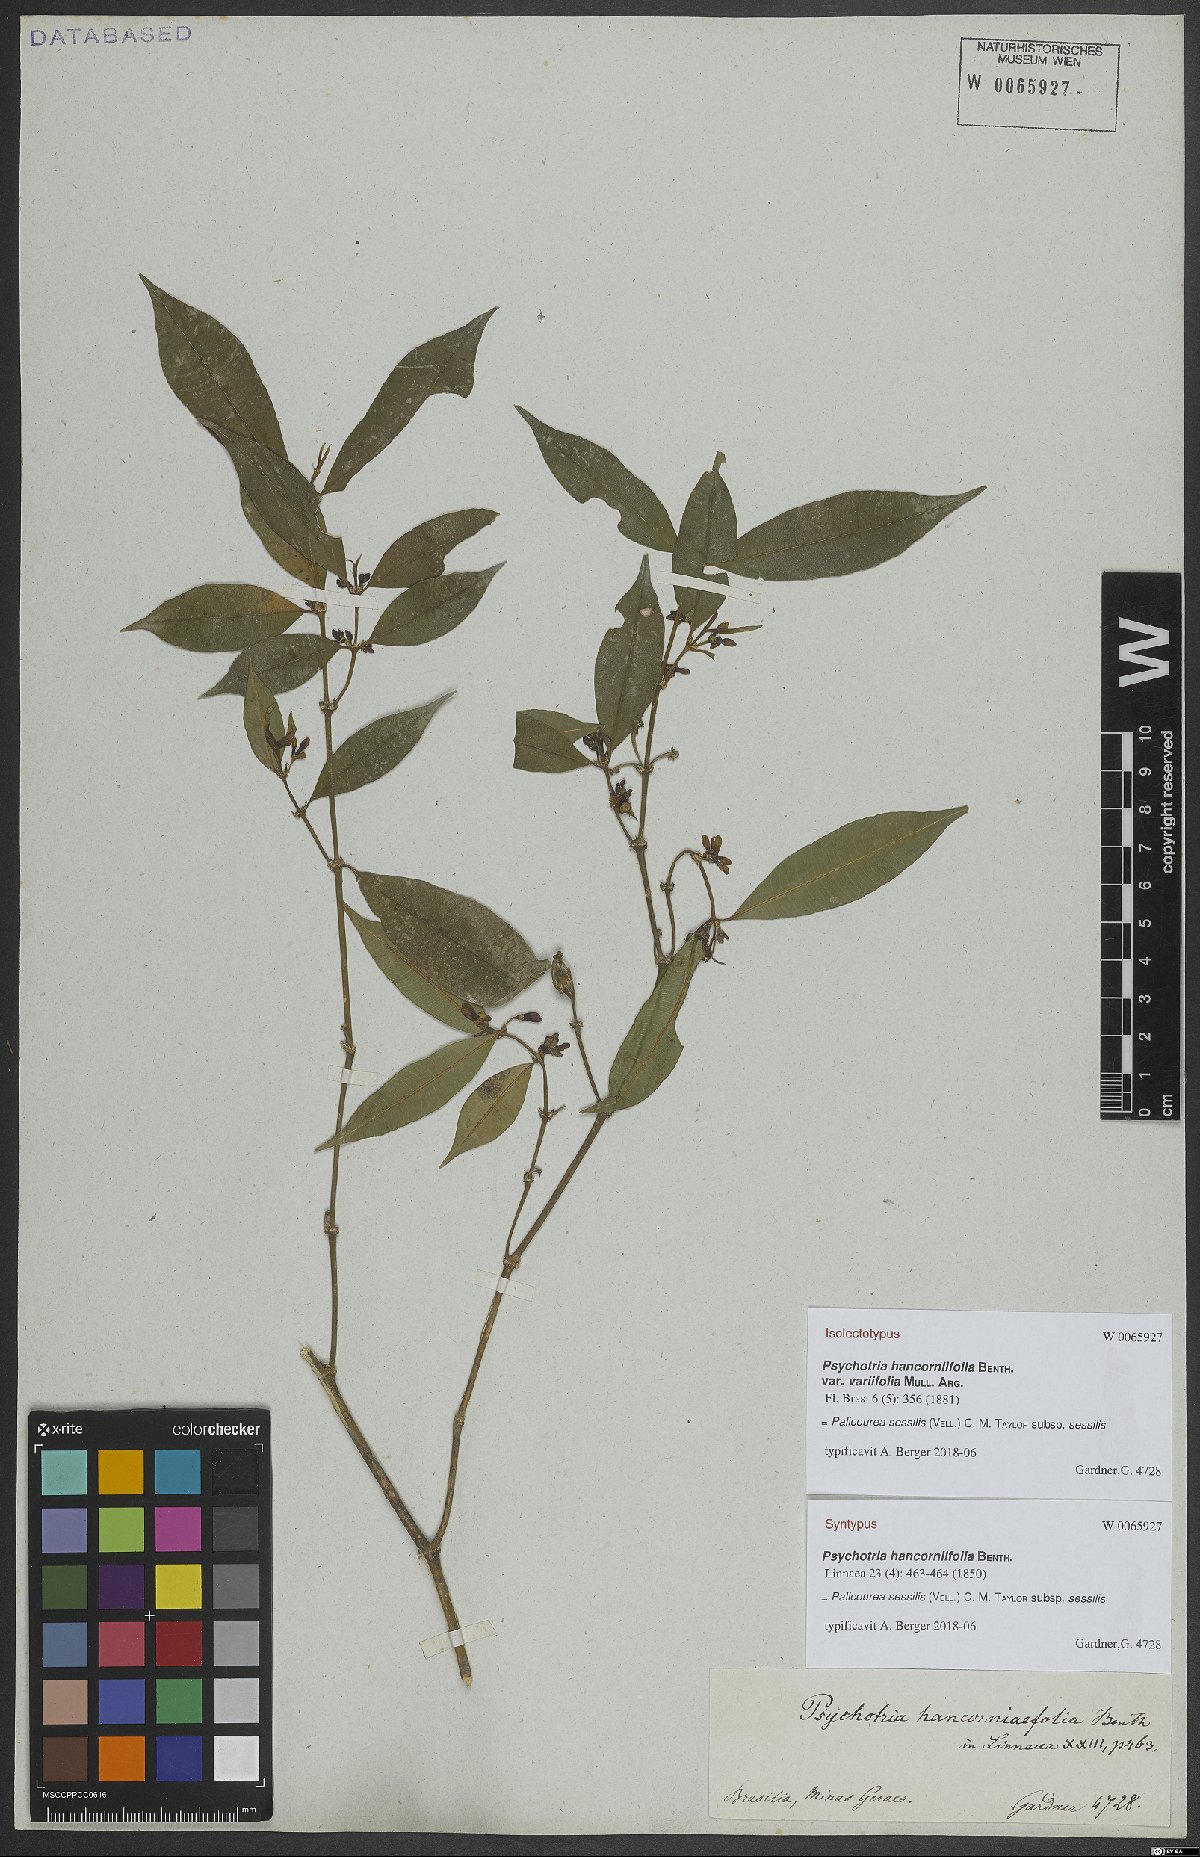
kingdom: Plantae
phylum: Tracheophyta
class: Magnoliopsida
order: Gentianales
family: Rubiaceae
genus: Palicourea
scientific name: Palicourea sessilis
